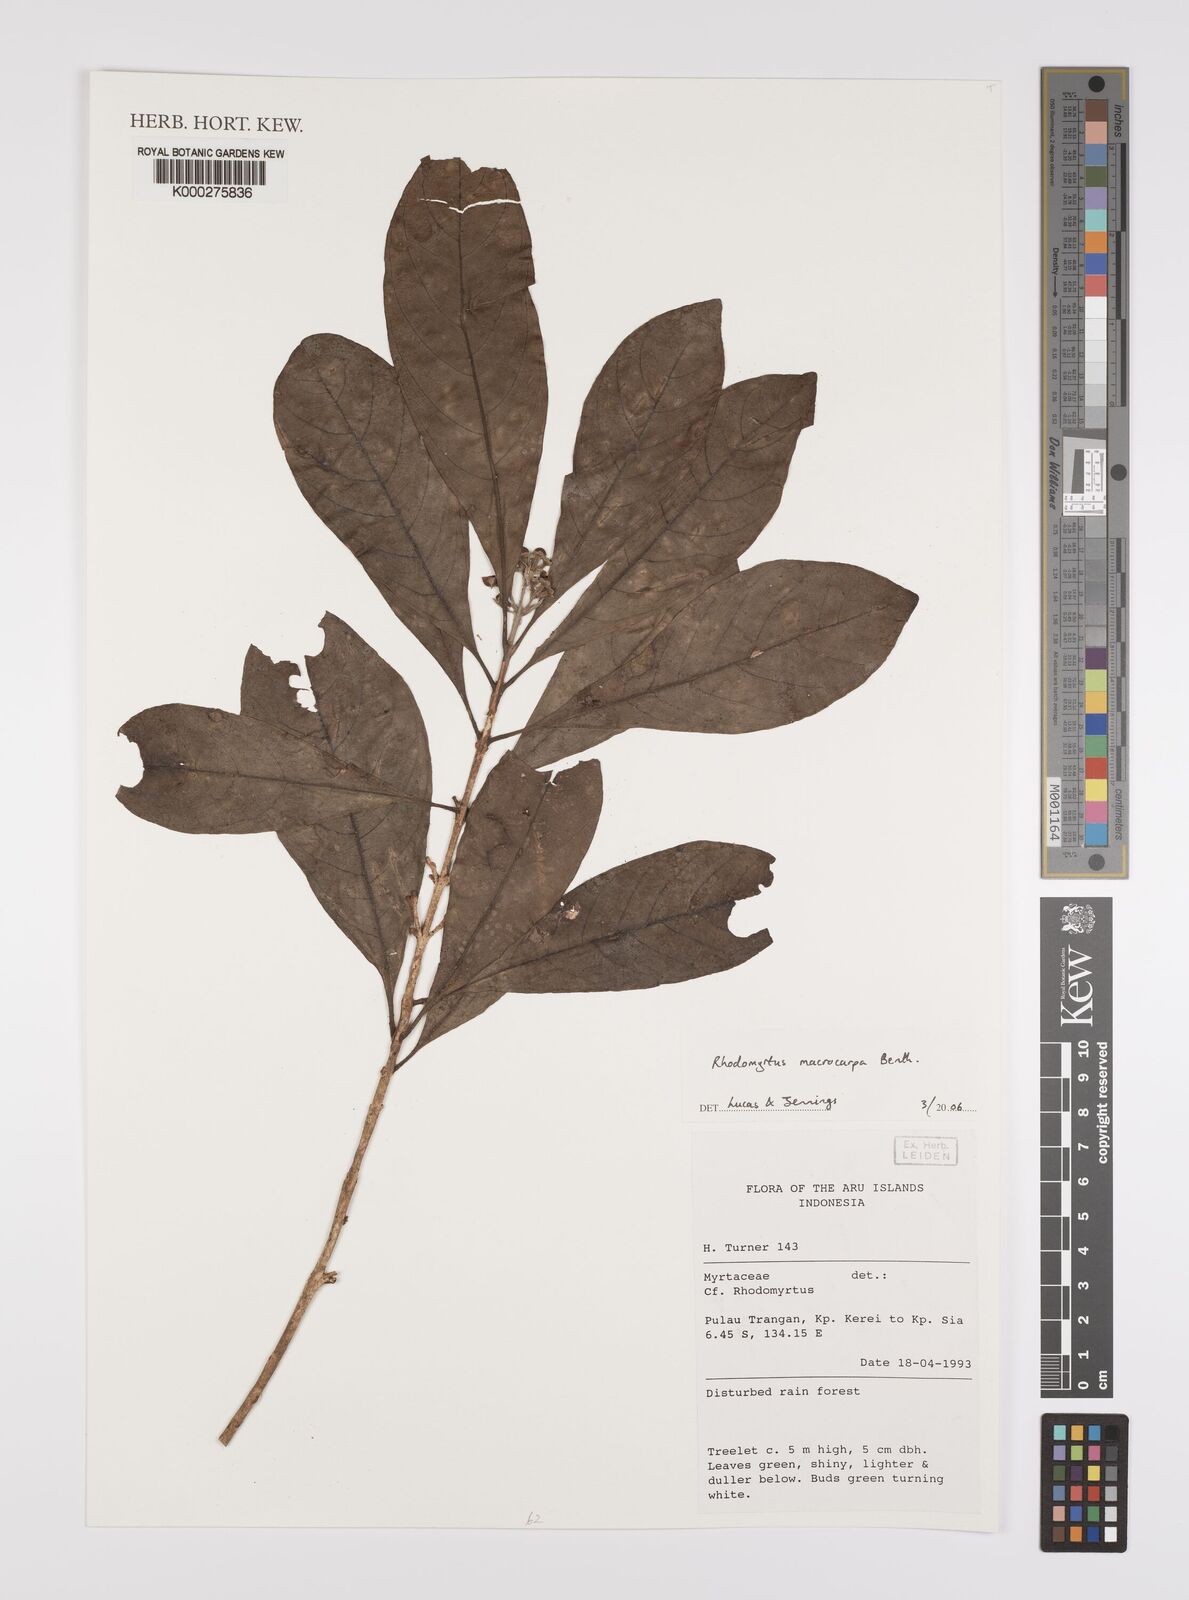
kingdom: Plantae
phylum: Tracheophyta
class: Magnoliopsida
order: Myrtales
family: Myrtaceae
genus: Rhodomyrtus
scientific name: Rhodomyrtus macrocarpa
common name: Finger-cherry
